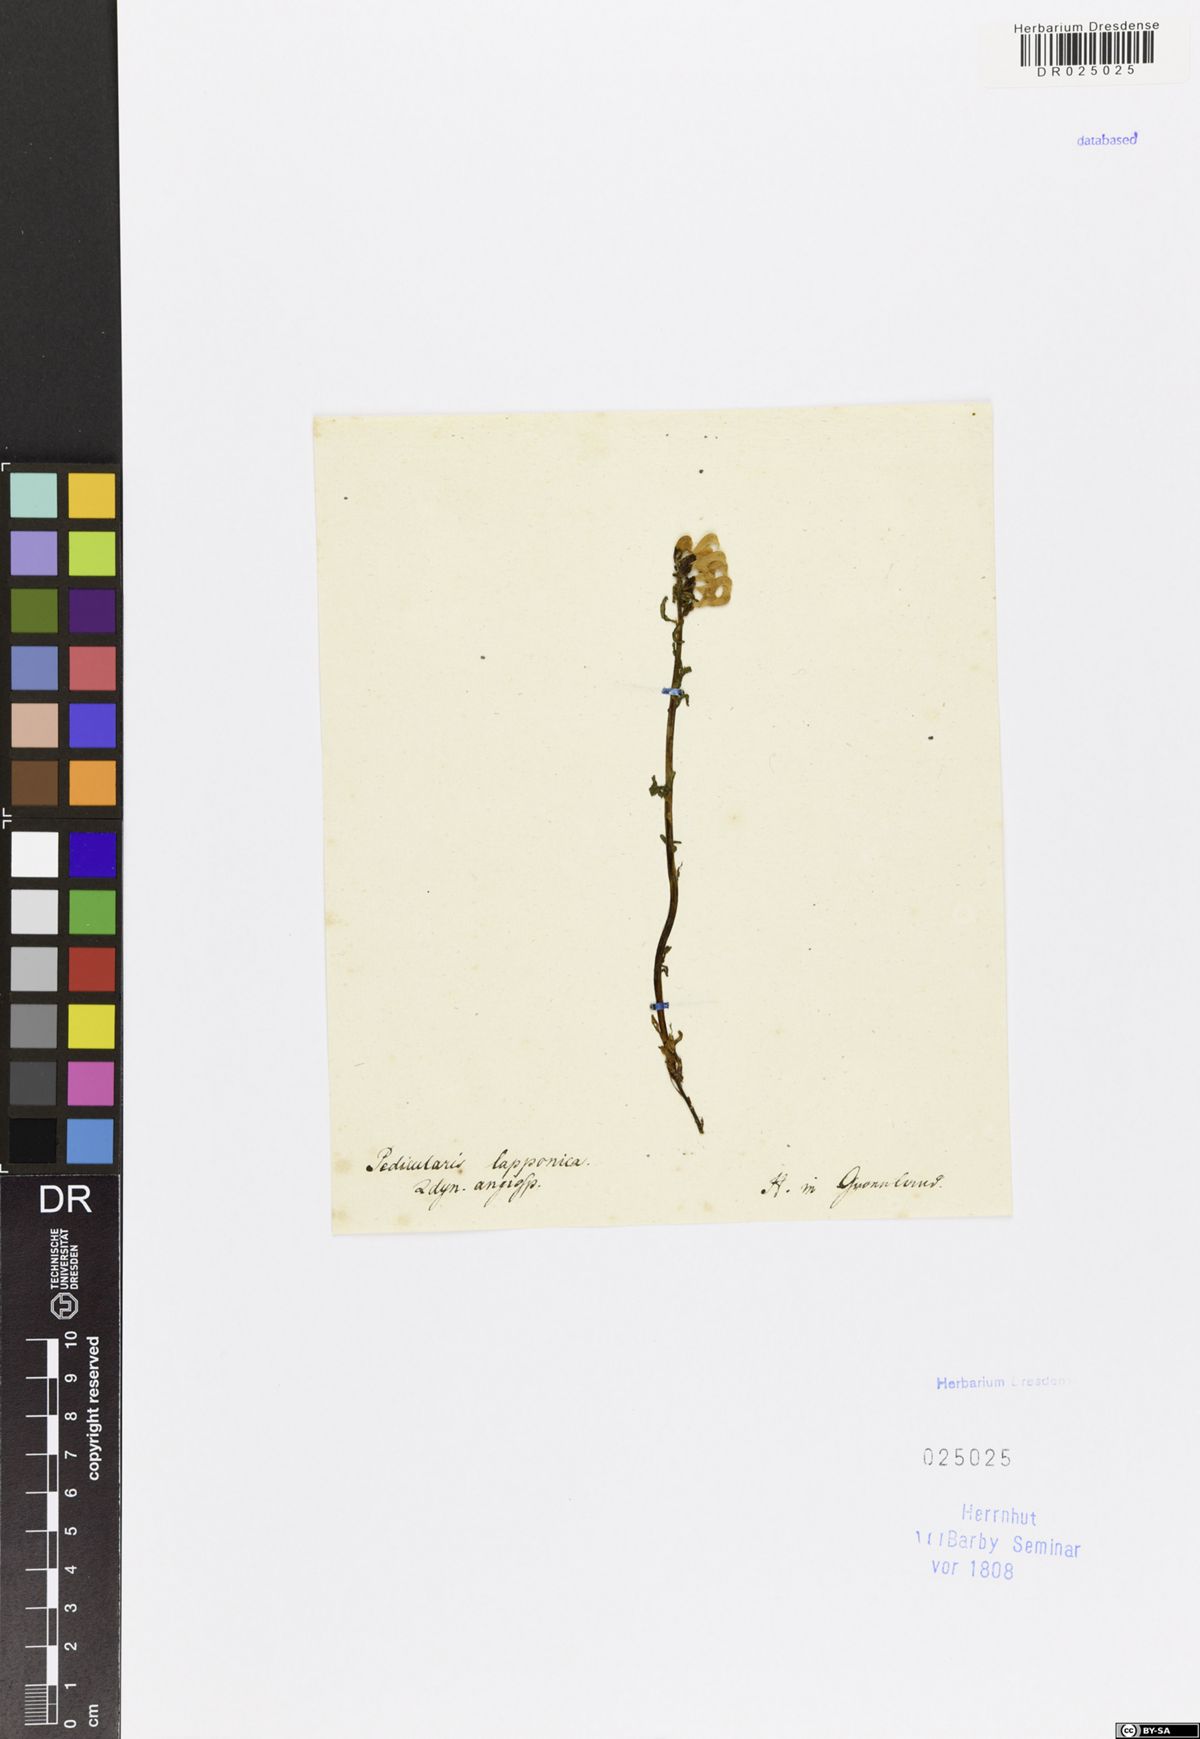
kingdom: Plantae
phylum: Tracheophyta
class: Magnoliopsida
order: Lamiales
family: Orobanchaceae
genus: Pedicularis
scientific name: Pedicularis lapponica
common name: Lapland lousewort
